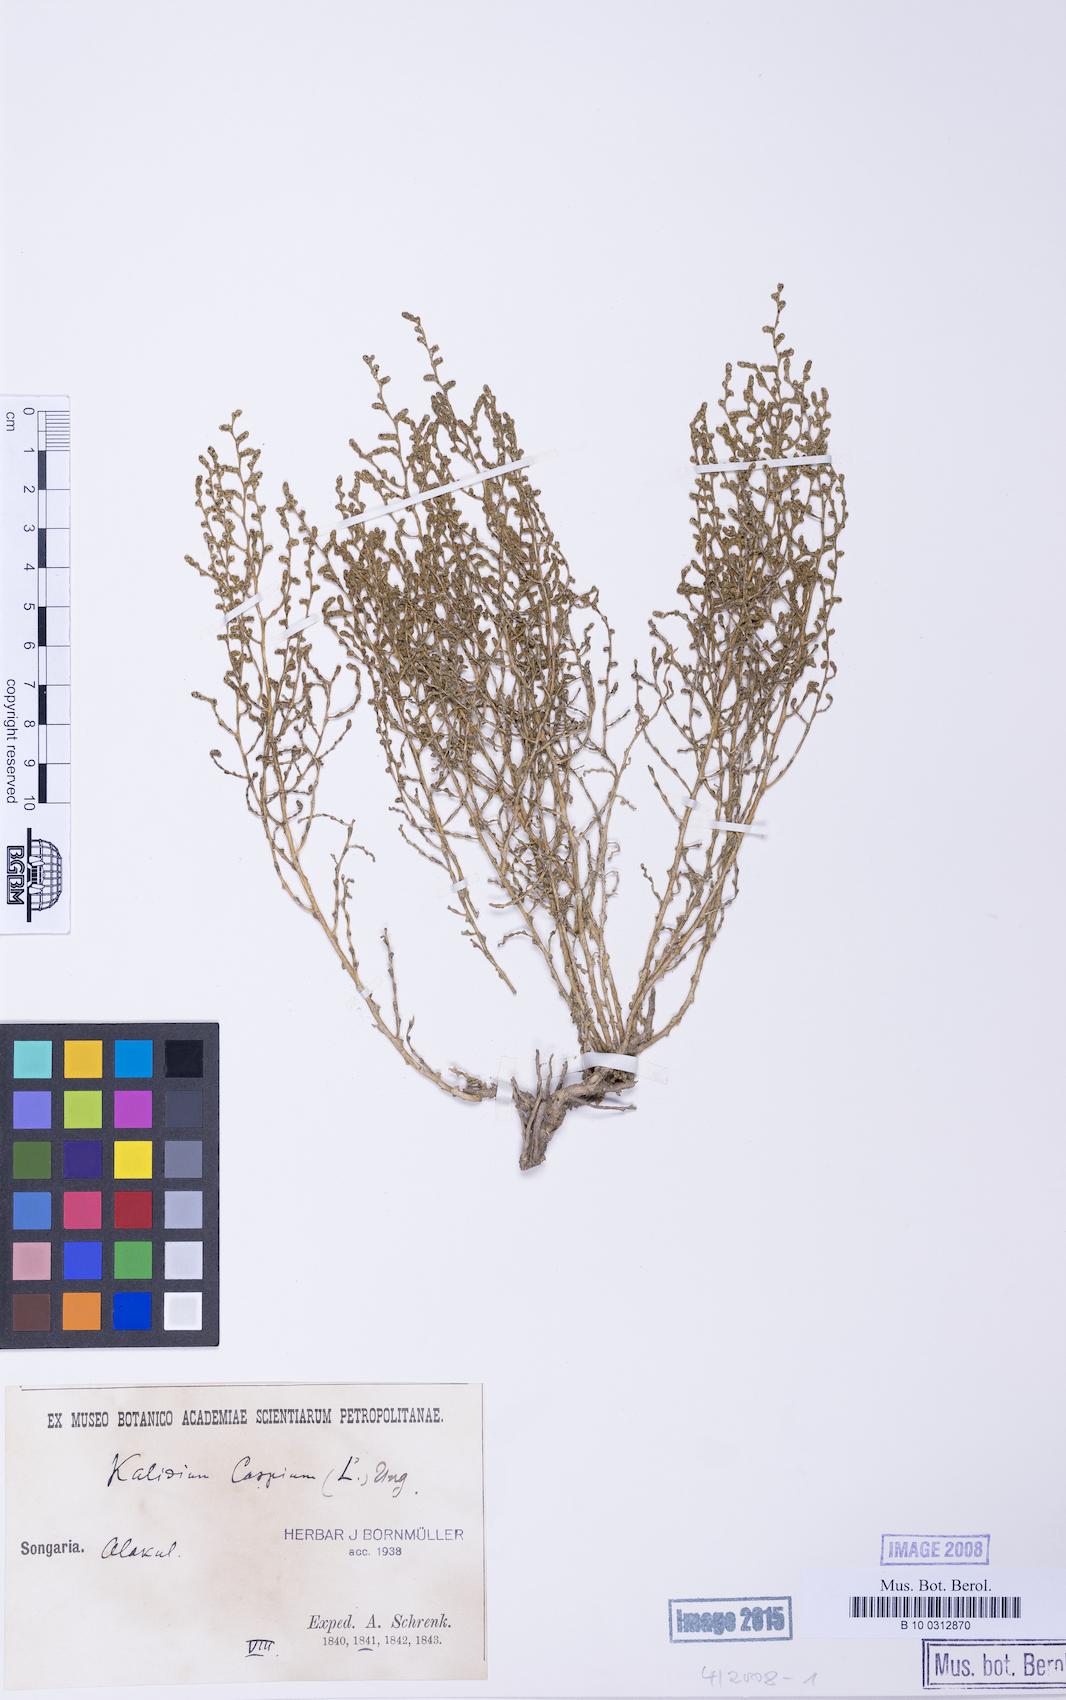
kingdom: Plantae
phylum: Tracheophyta
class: Magnoliopsida
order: Caryophyllales
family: Amaranthaceae
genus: Kalidium
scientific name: Kalidium caspicum
